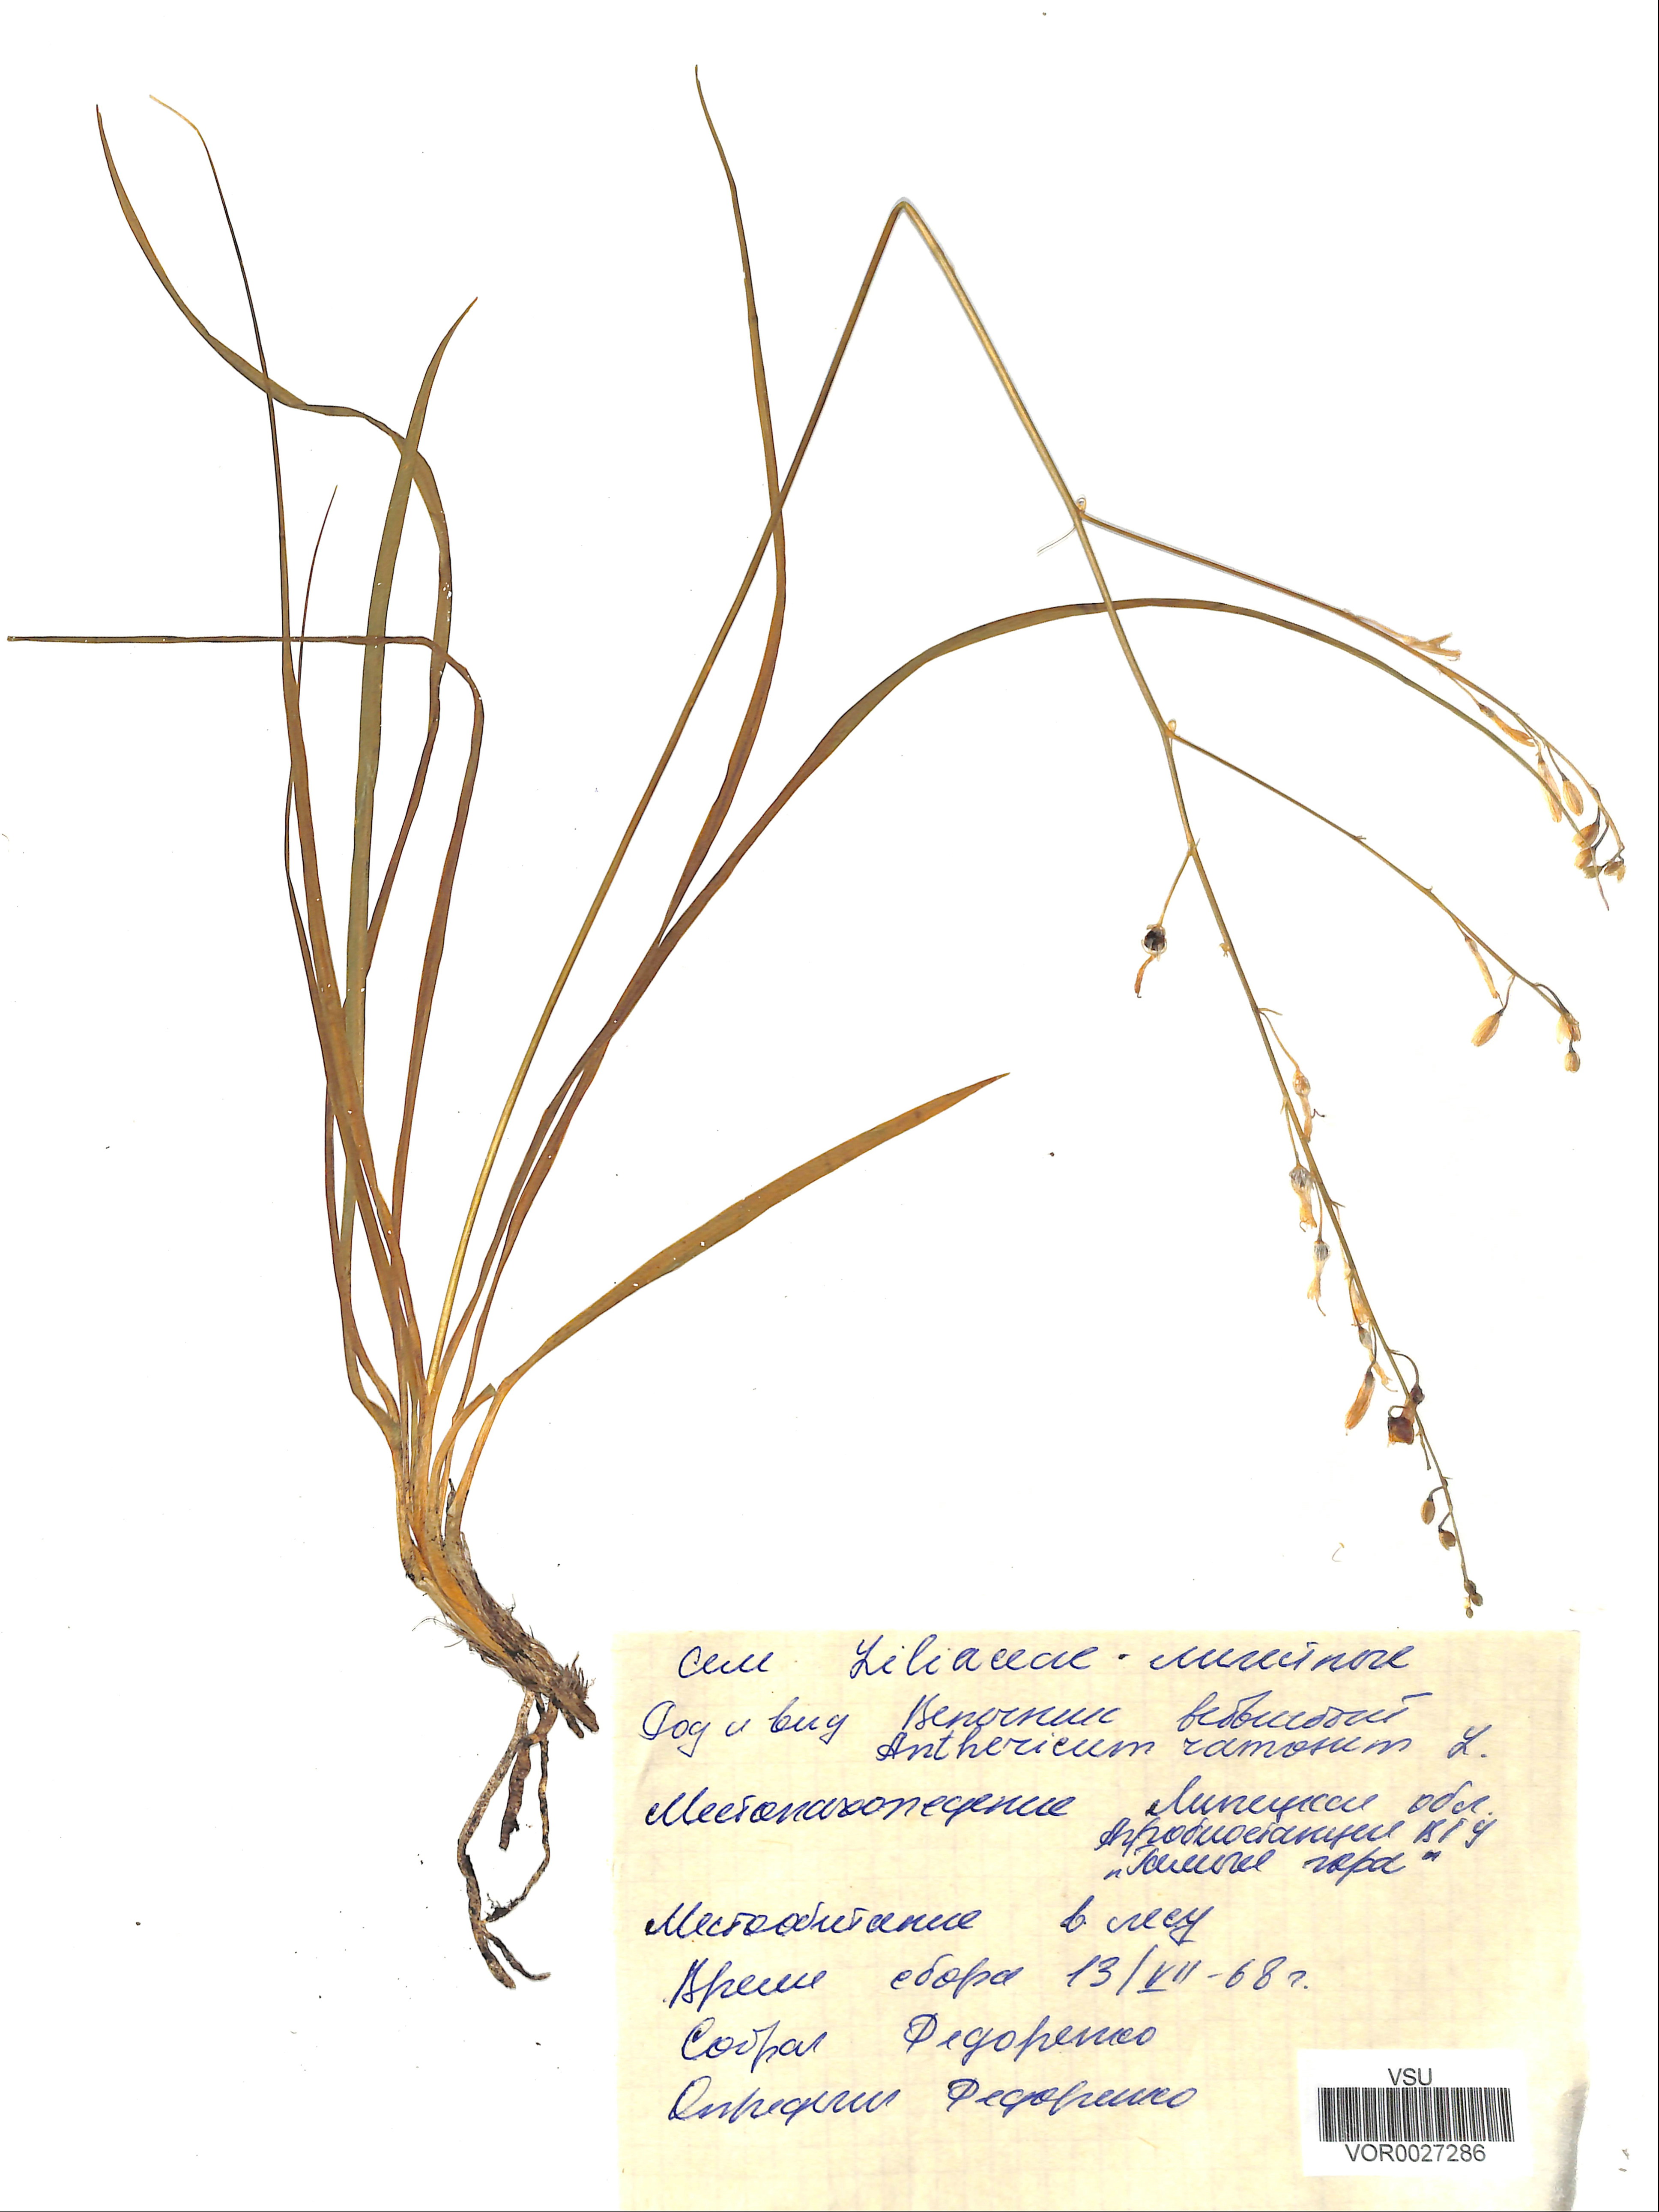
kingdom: Plantae
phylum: Tracheophyta
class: Liliopsida
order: Asparagales
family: Asparagaceae
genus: Anthericum
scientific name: Anthericum ramosum
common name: Branched st. bernard's-lily
